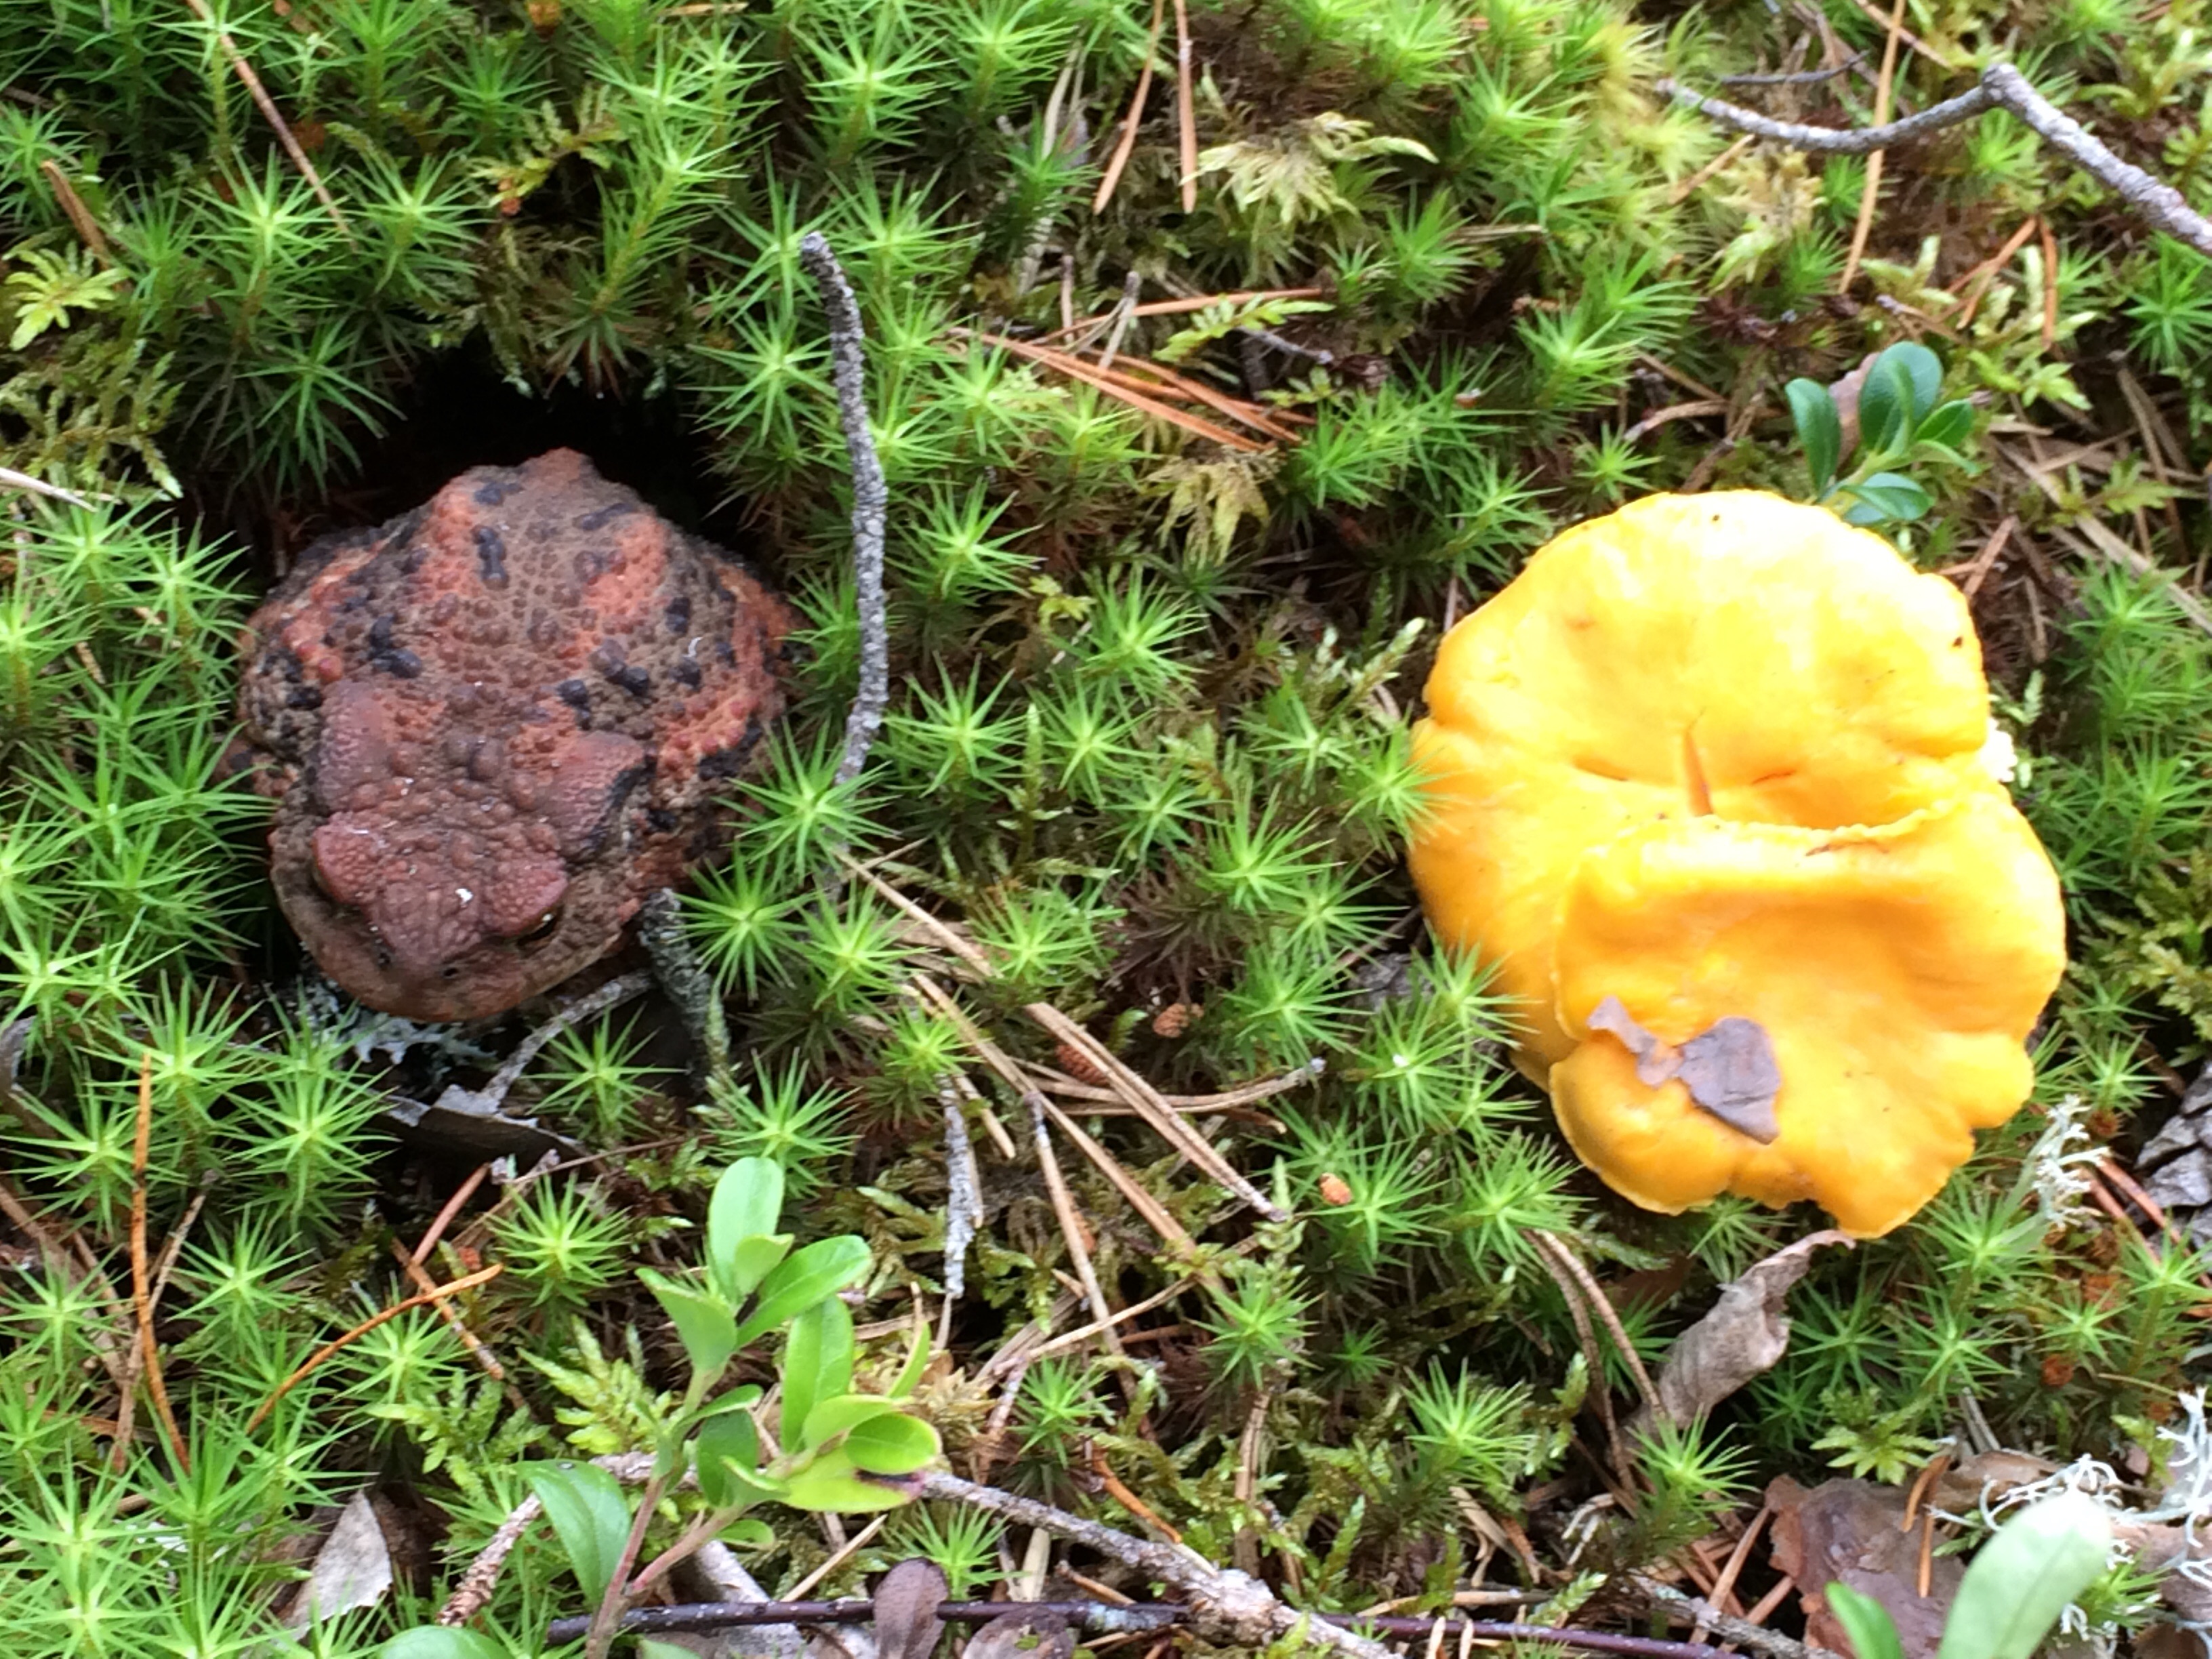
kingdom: Animalia
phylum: Chordata
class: Amphibia
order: Anura
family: Bufonidae
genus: Bufo
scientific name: Bufo bufo
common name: Common toad
